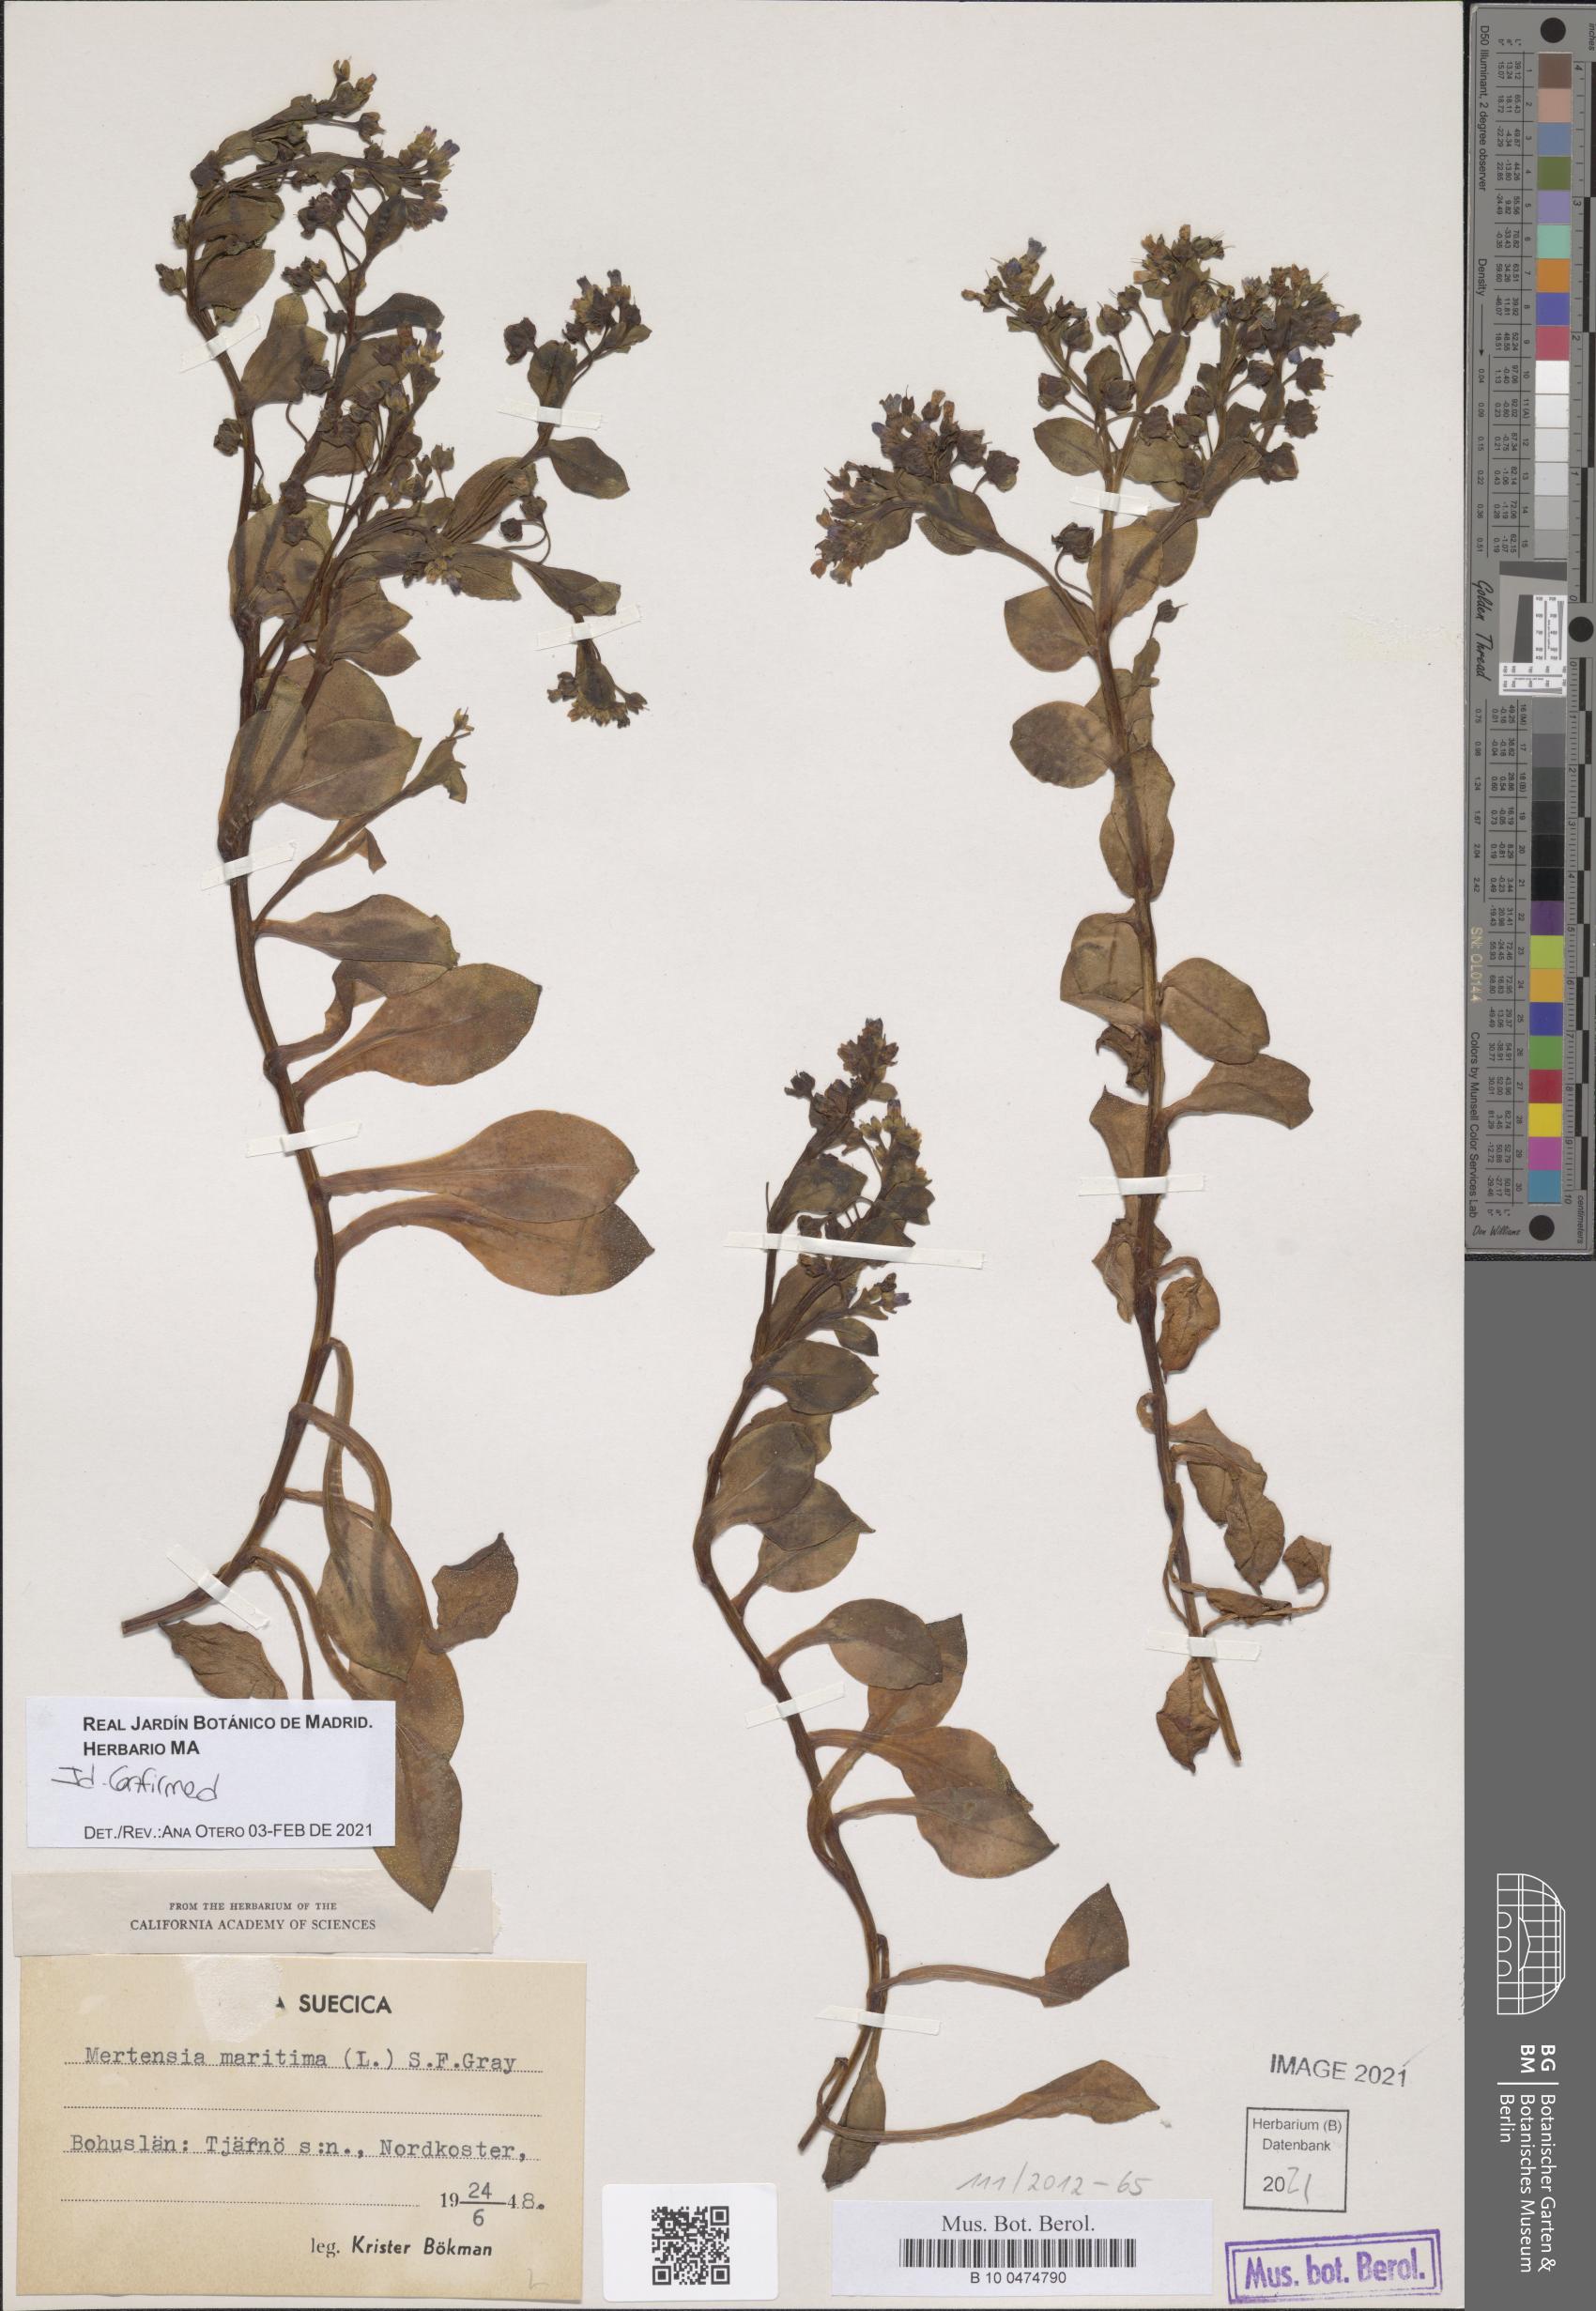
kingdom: Plantae
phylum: Tracheophyta
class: Magnoliopsida
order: Boraginales
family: Boraginaceae
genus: Mertensia
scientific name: Mertensia maritima
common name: Oysterplant
